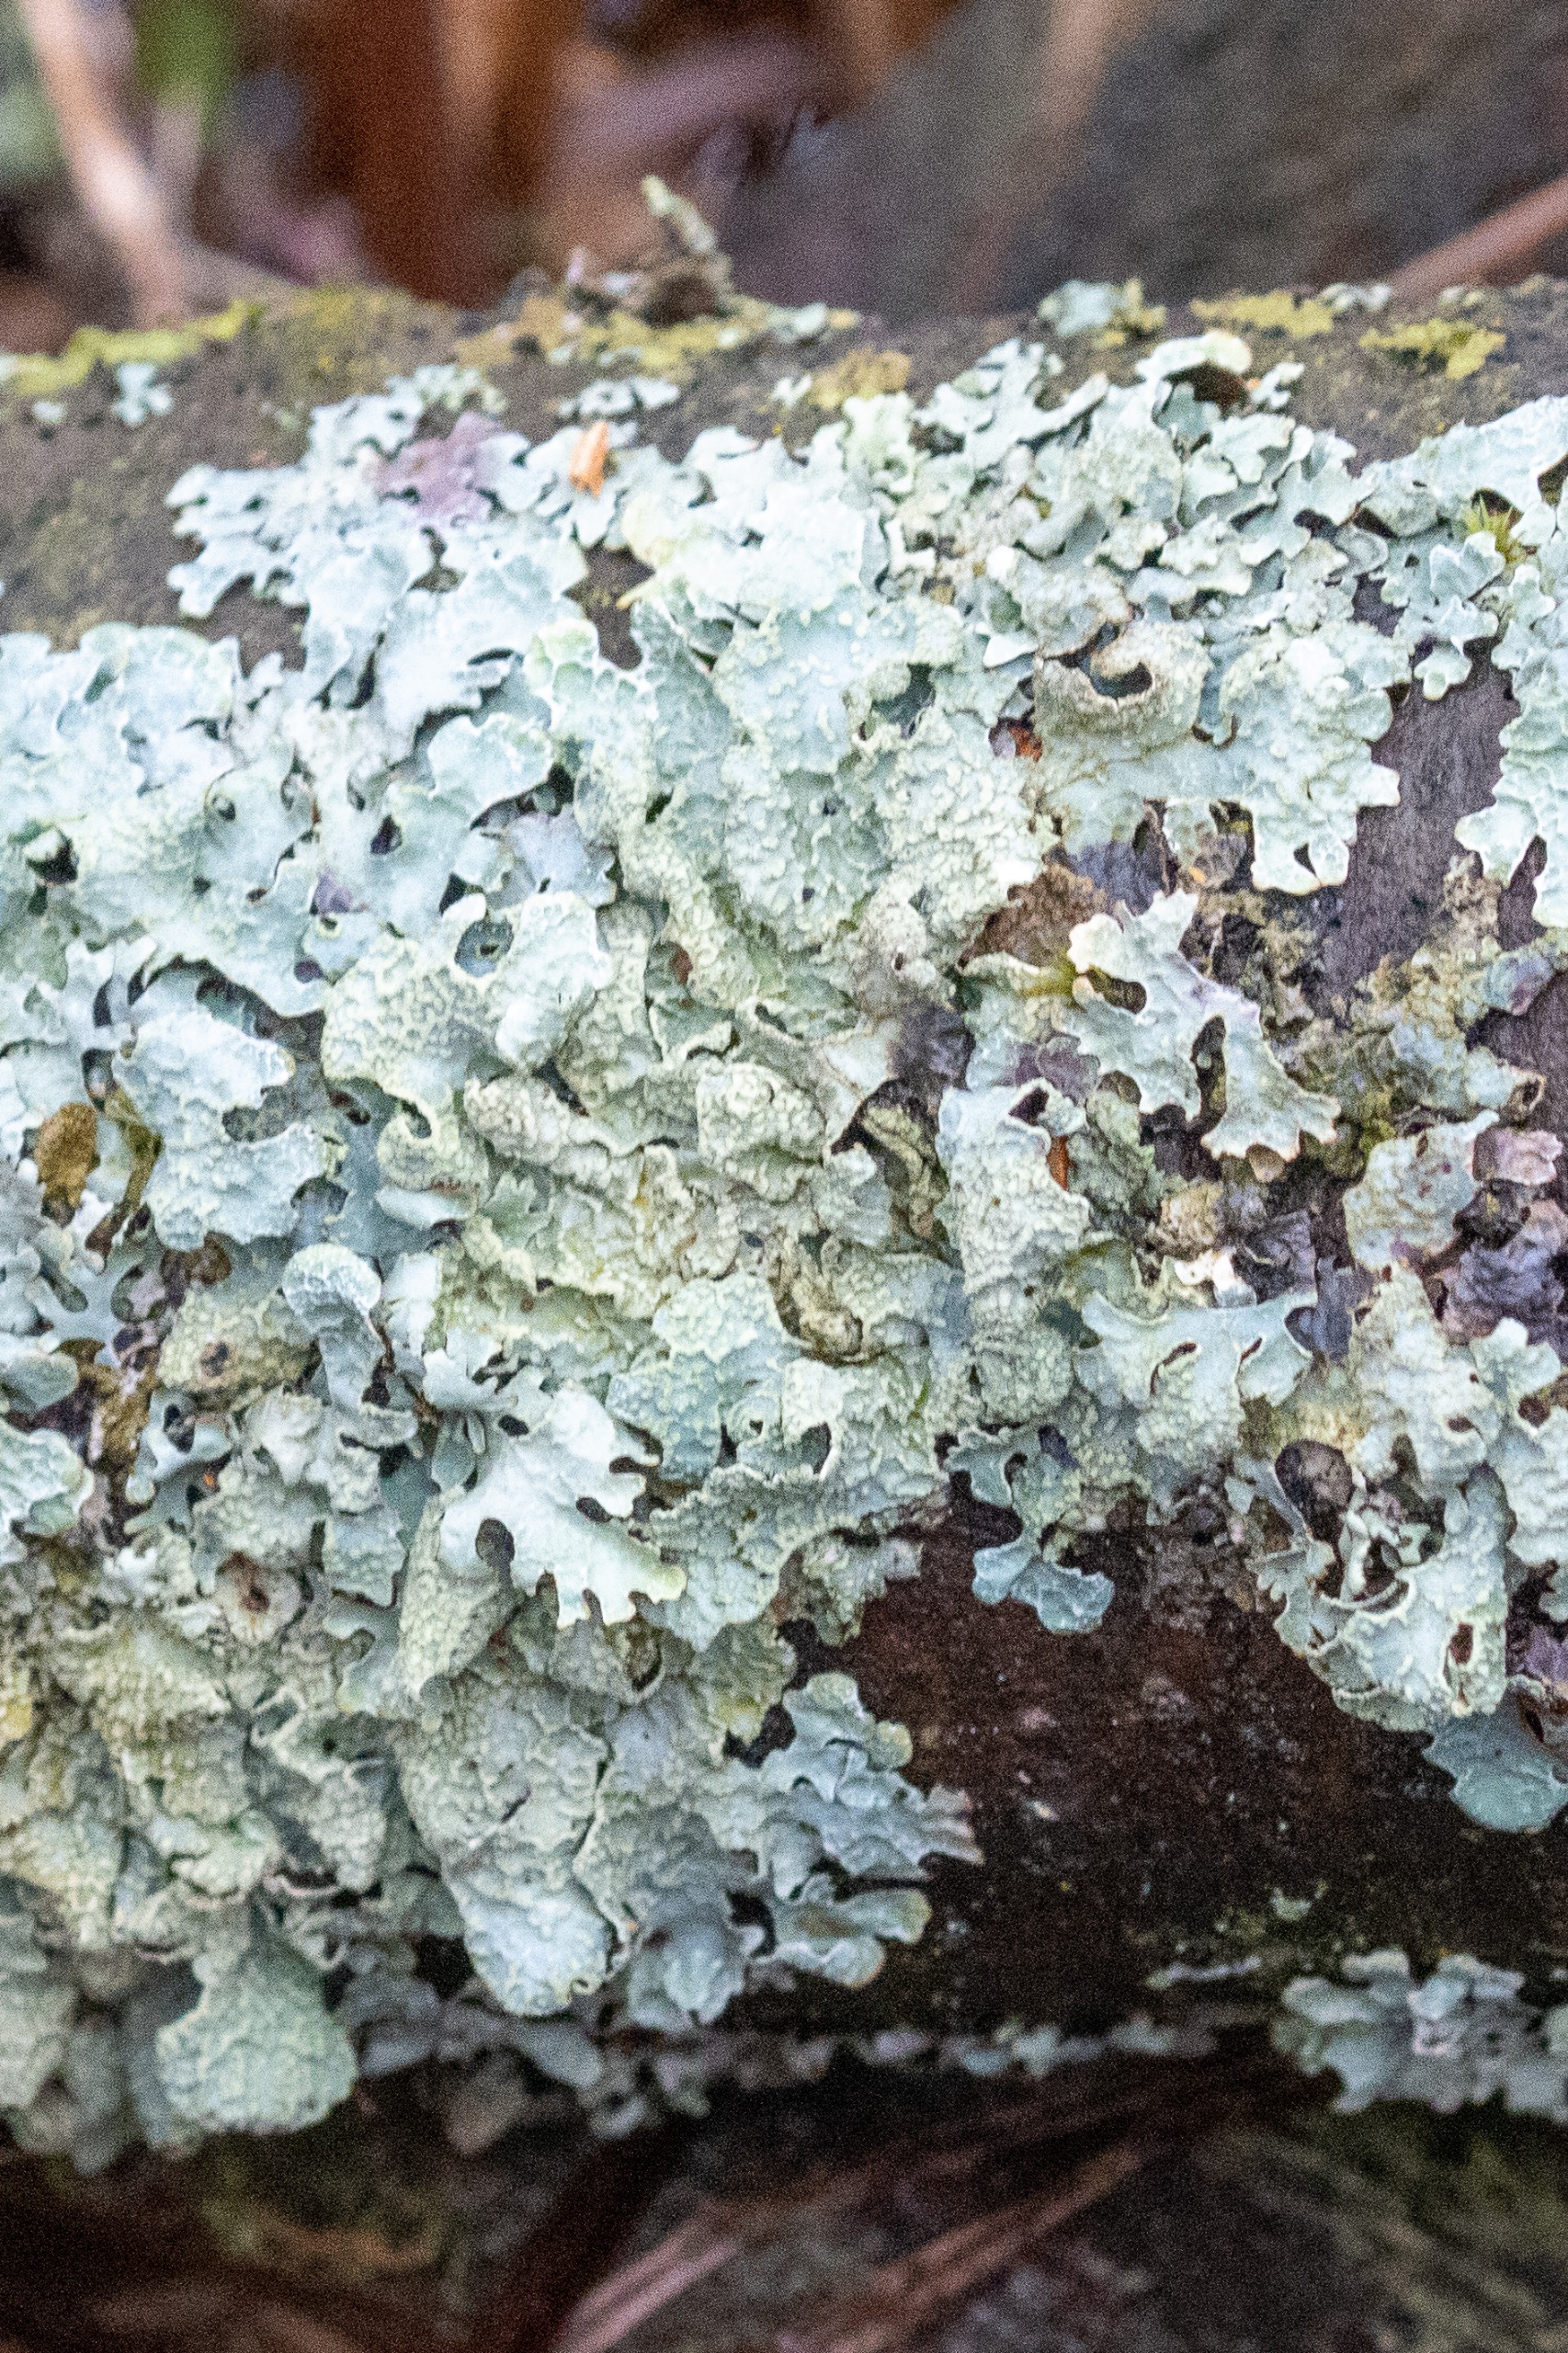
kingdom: Fungi
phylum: Ascomycota
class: Lecanoromycetes
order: Lecanorales
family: Parmeliaceae
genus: Parmelia
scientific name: Parmelia sulcata
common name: Rynket skållav
